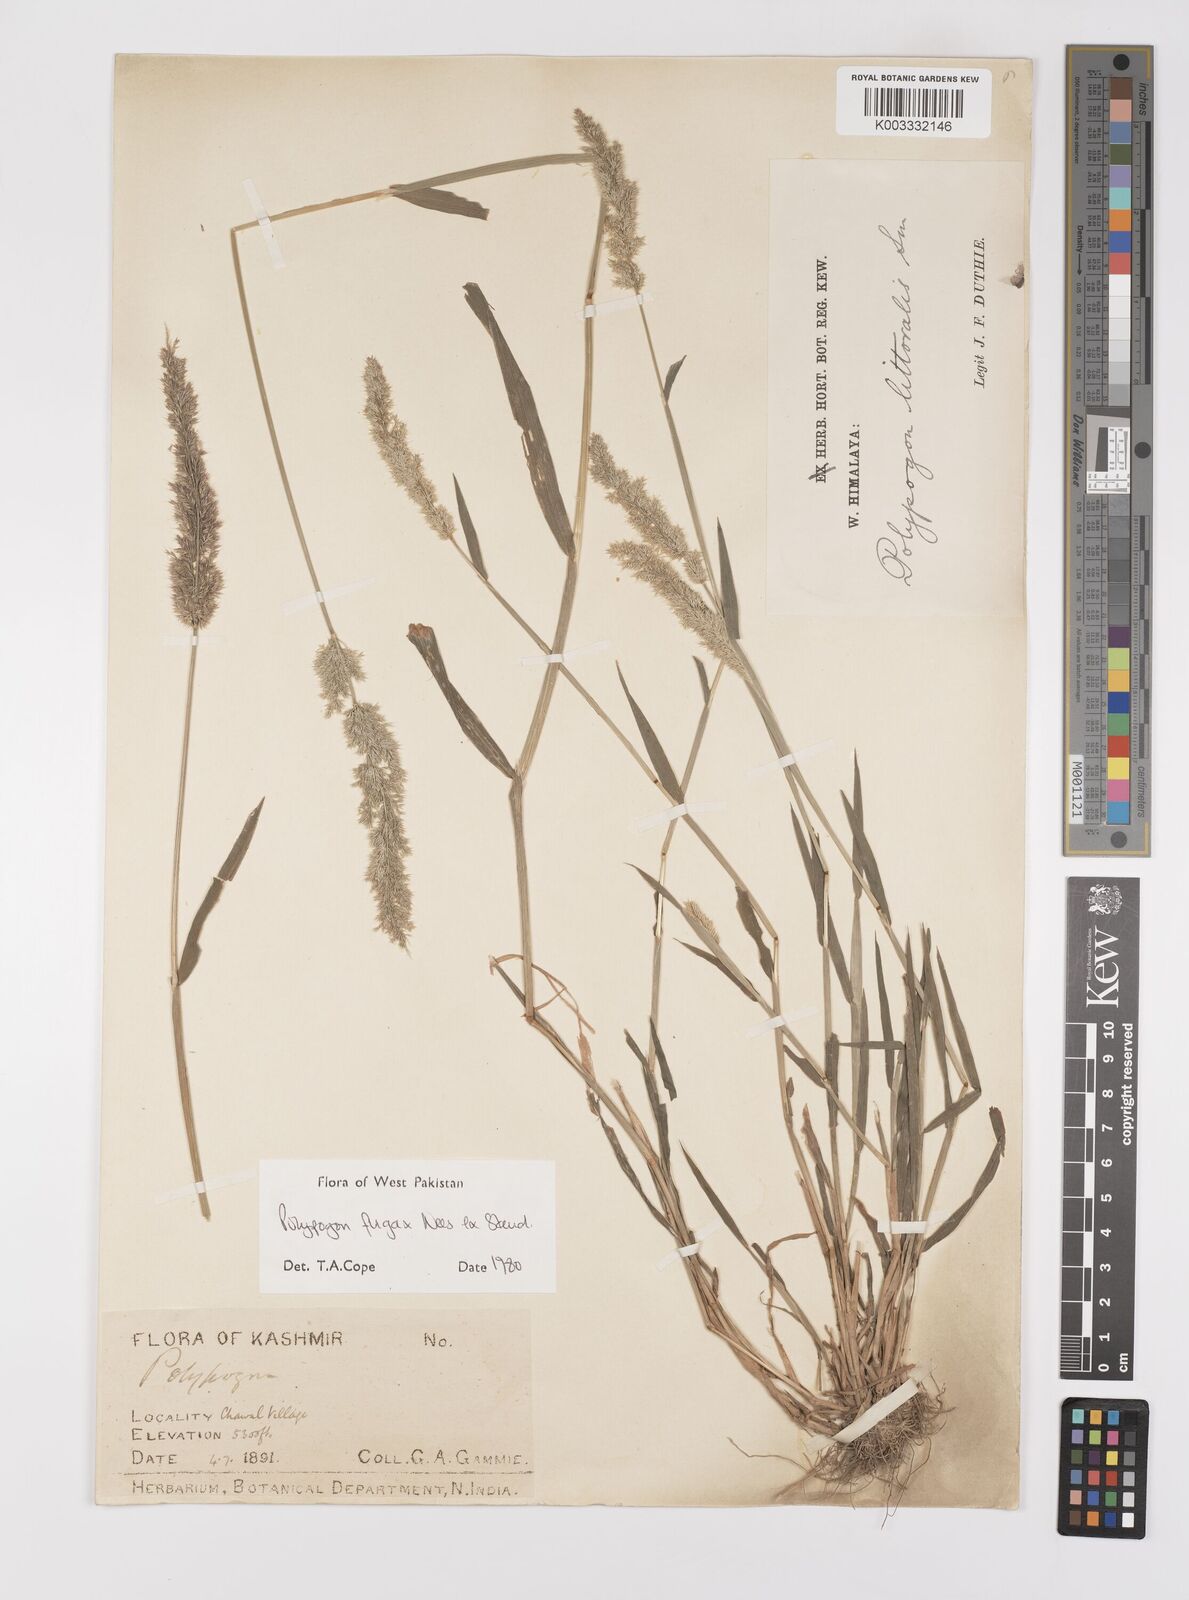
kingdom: Plantae
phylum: Tracheophyta
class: Liliopsida
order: Poales
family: Poaceae
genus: Polypogon
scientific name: Polypogon fugax
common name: Asia minor bluegrass
